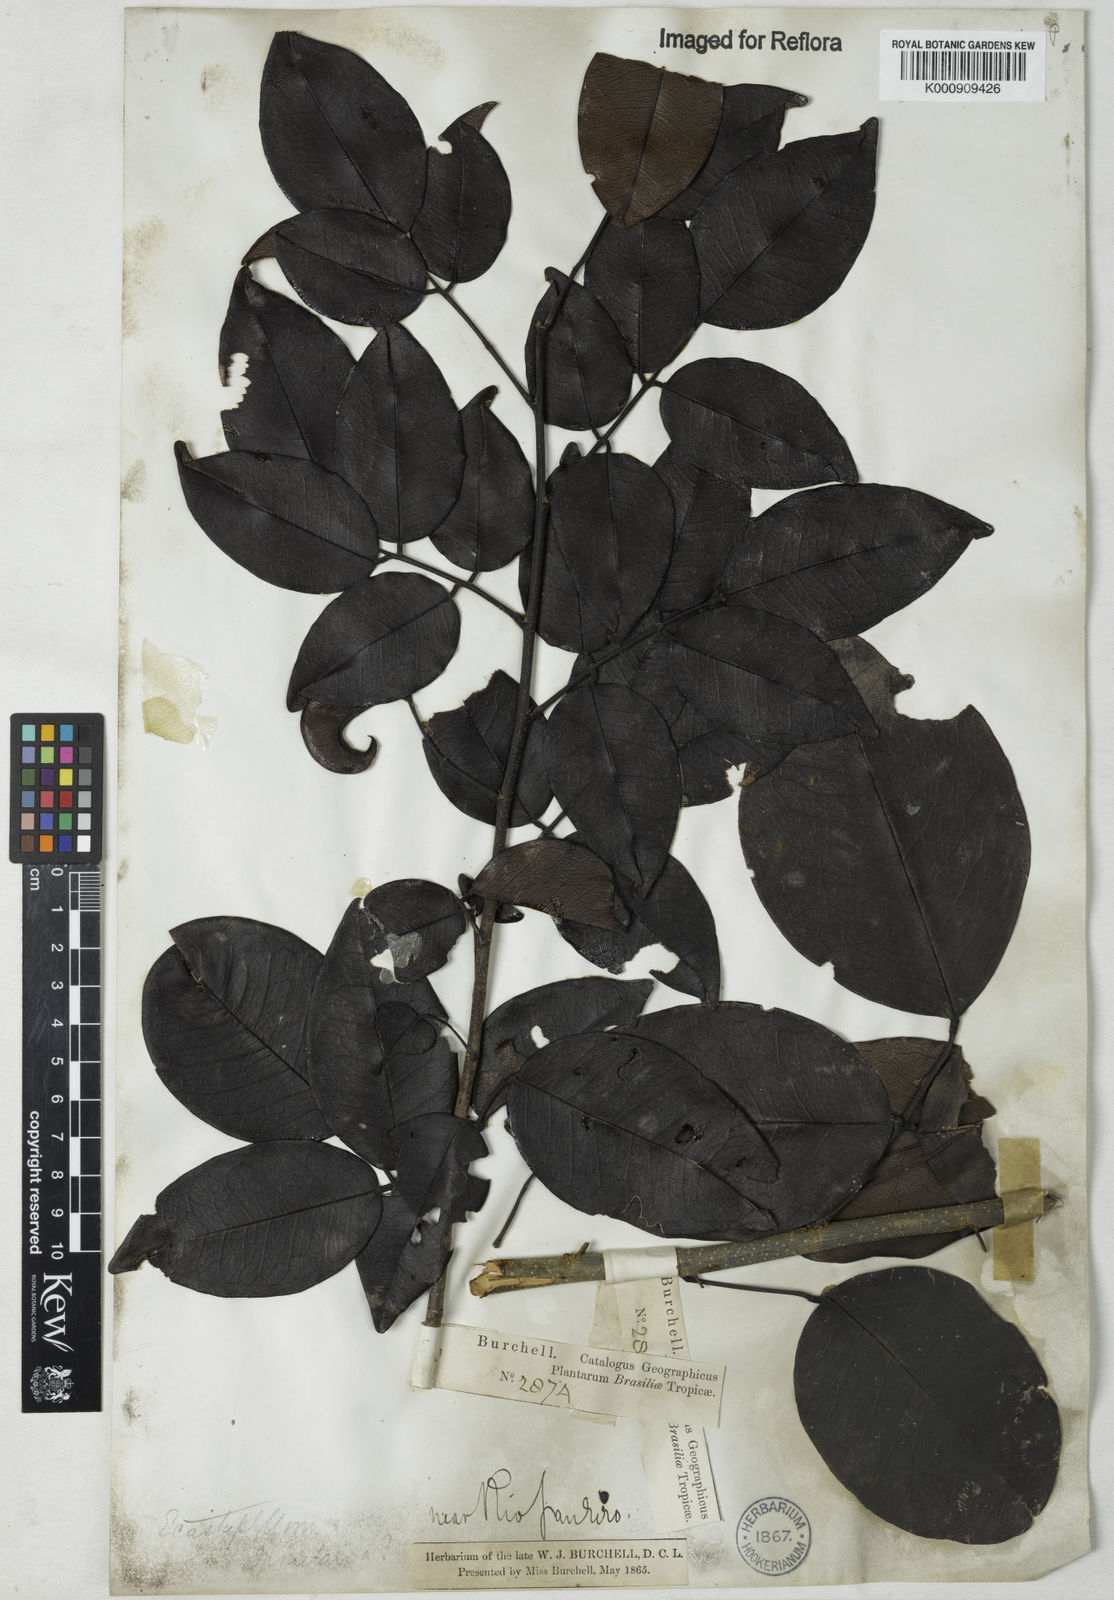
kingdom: Plantae
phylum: Tracheophyta
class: Magnoliopsida
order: Fabales
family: Fabaceae
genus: Dalbergia
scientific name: Dalbergia
